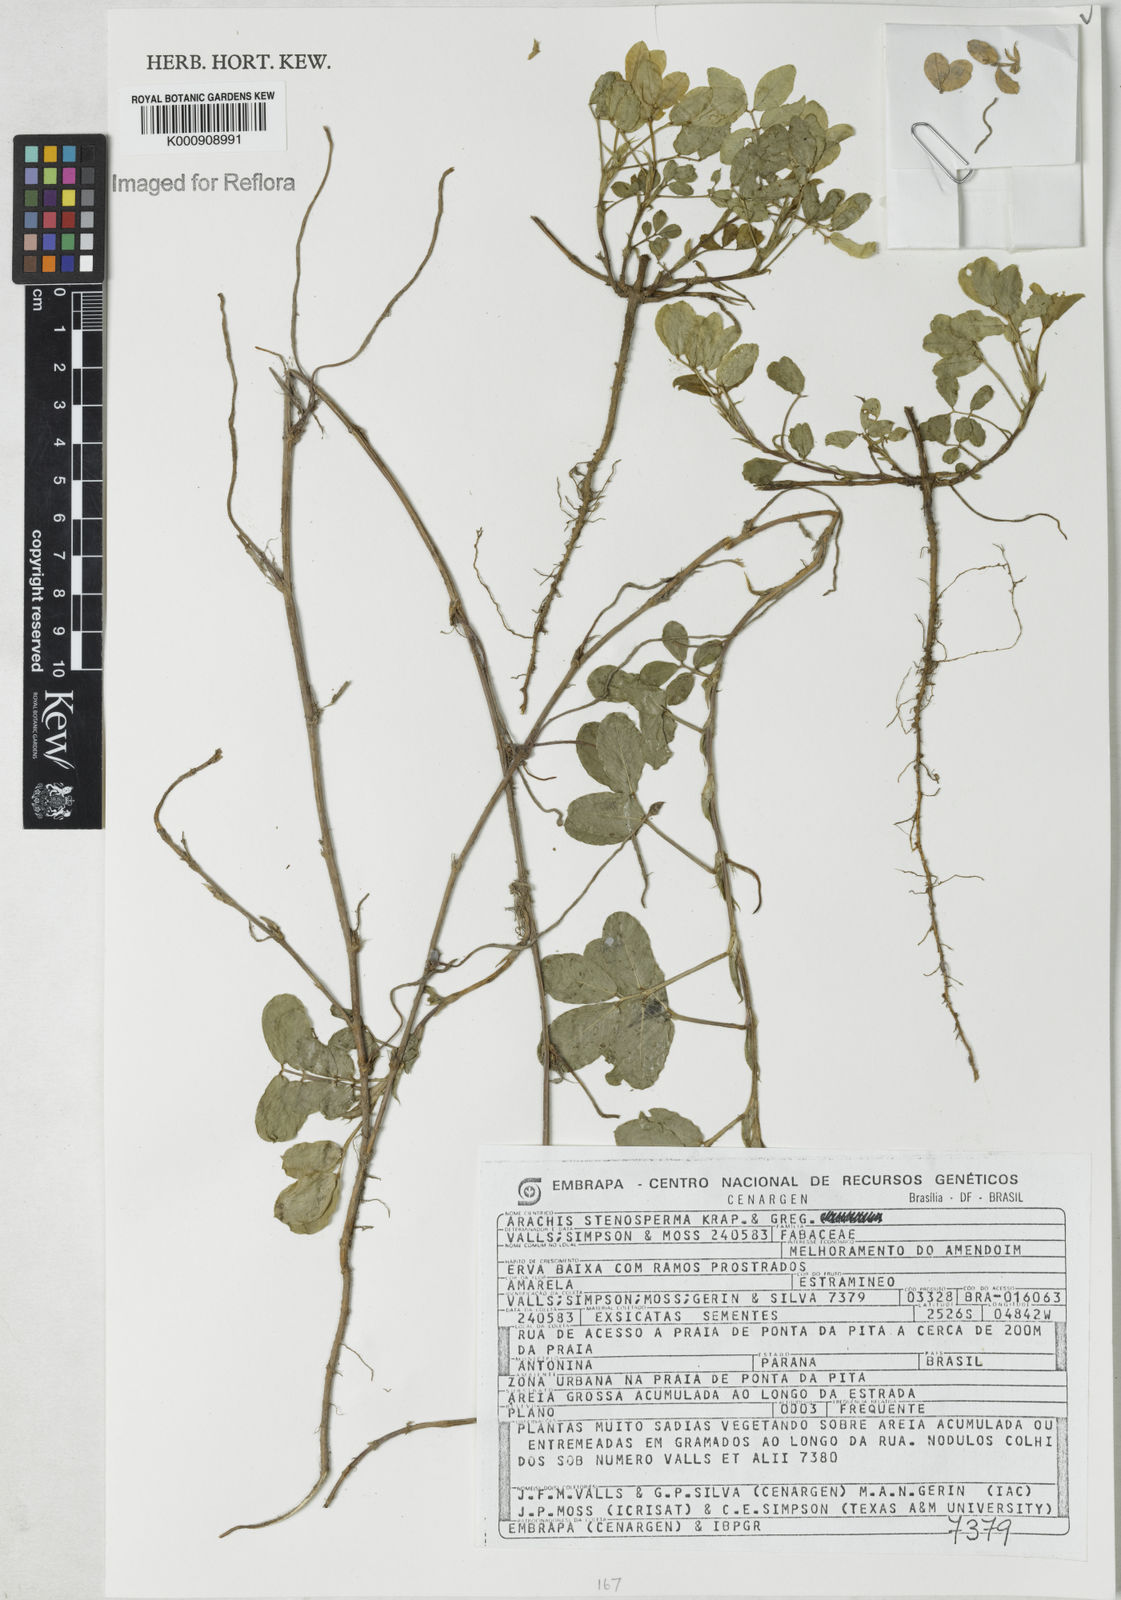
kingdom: Plantae
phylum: Tracheophyta
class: Magnoliopsida
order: Fabales
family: Fabaceae
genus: Arachis
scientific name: Arachis stenosperma
